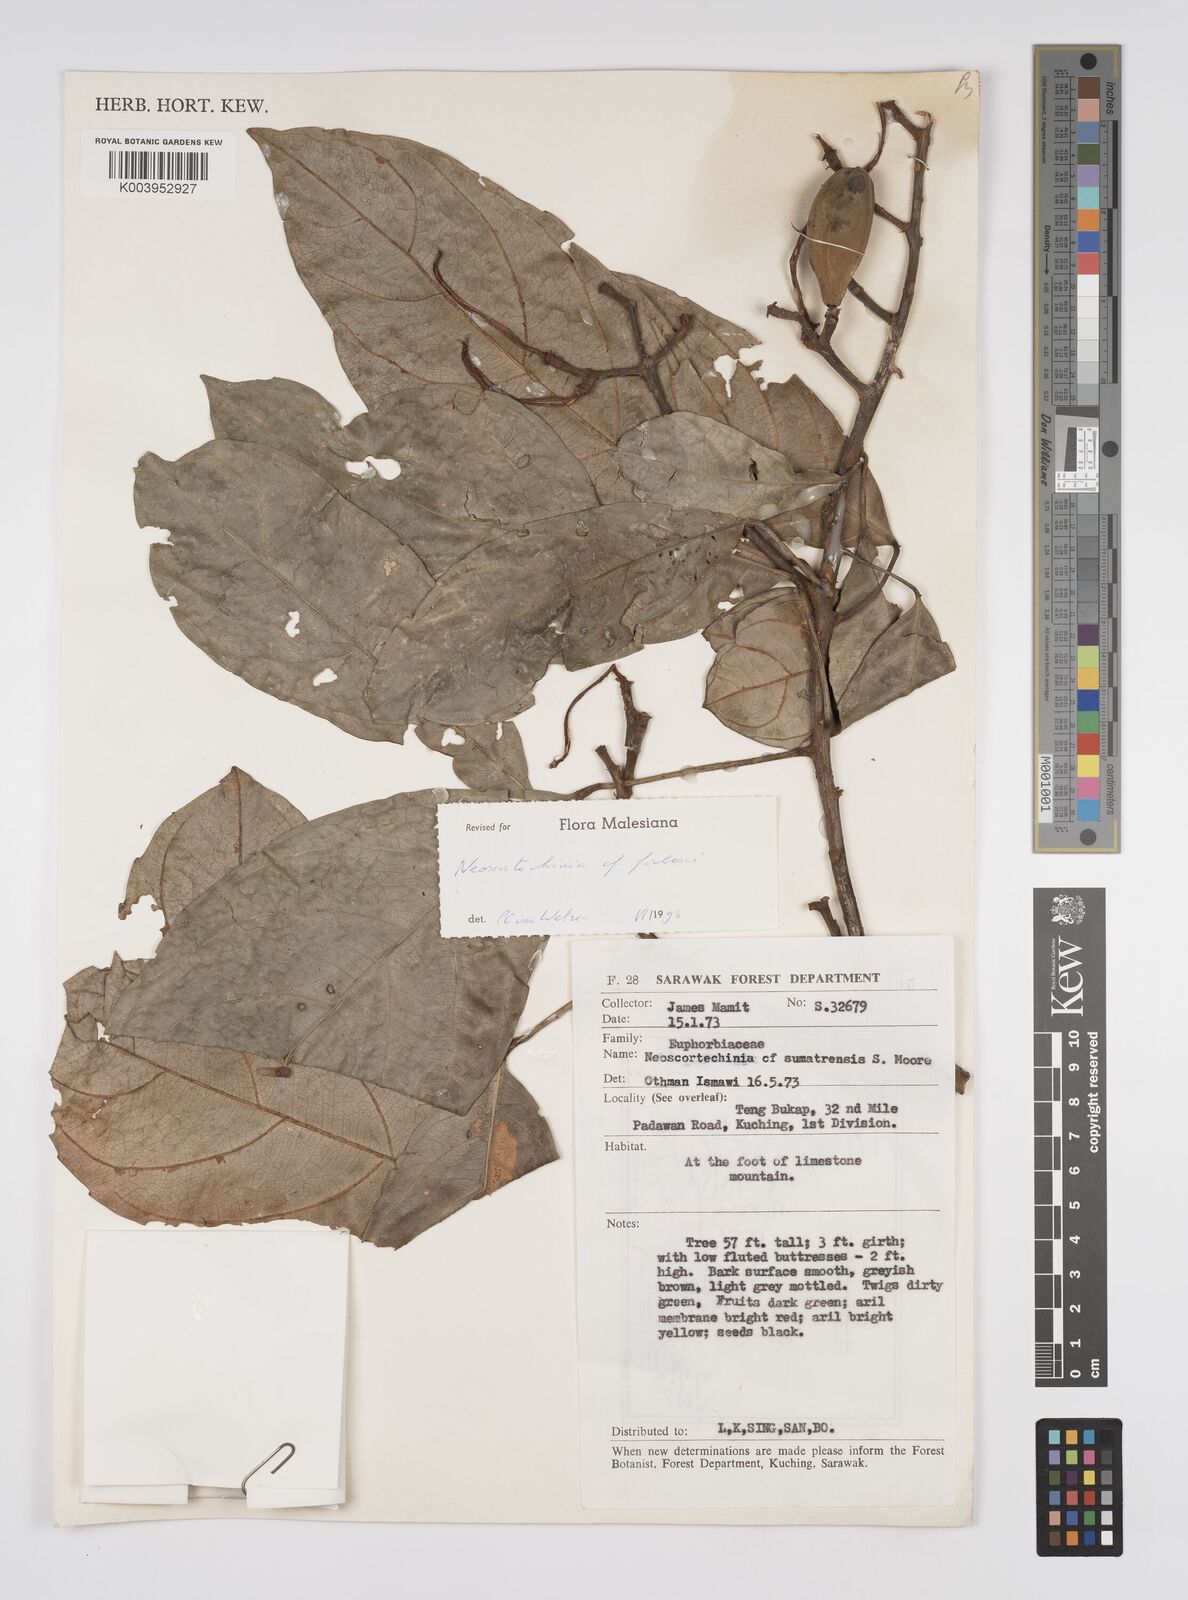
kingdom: Plantae
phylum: Tracheophyta
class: Magnoliopsida
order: Malpighiales
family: Euphorbiaceae
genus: Neoscortechinia
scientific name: Neoscortechinia philippinensis
